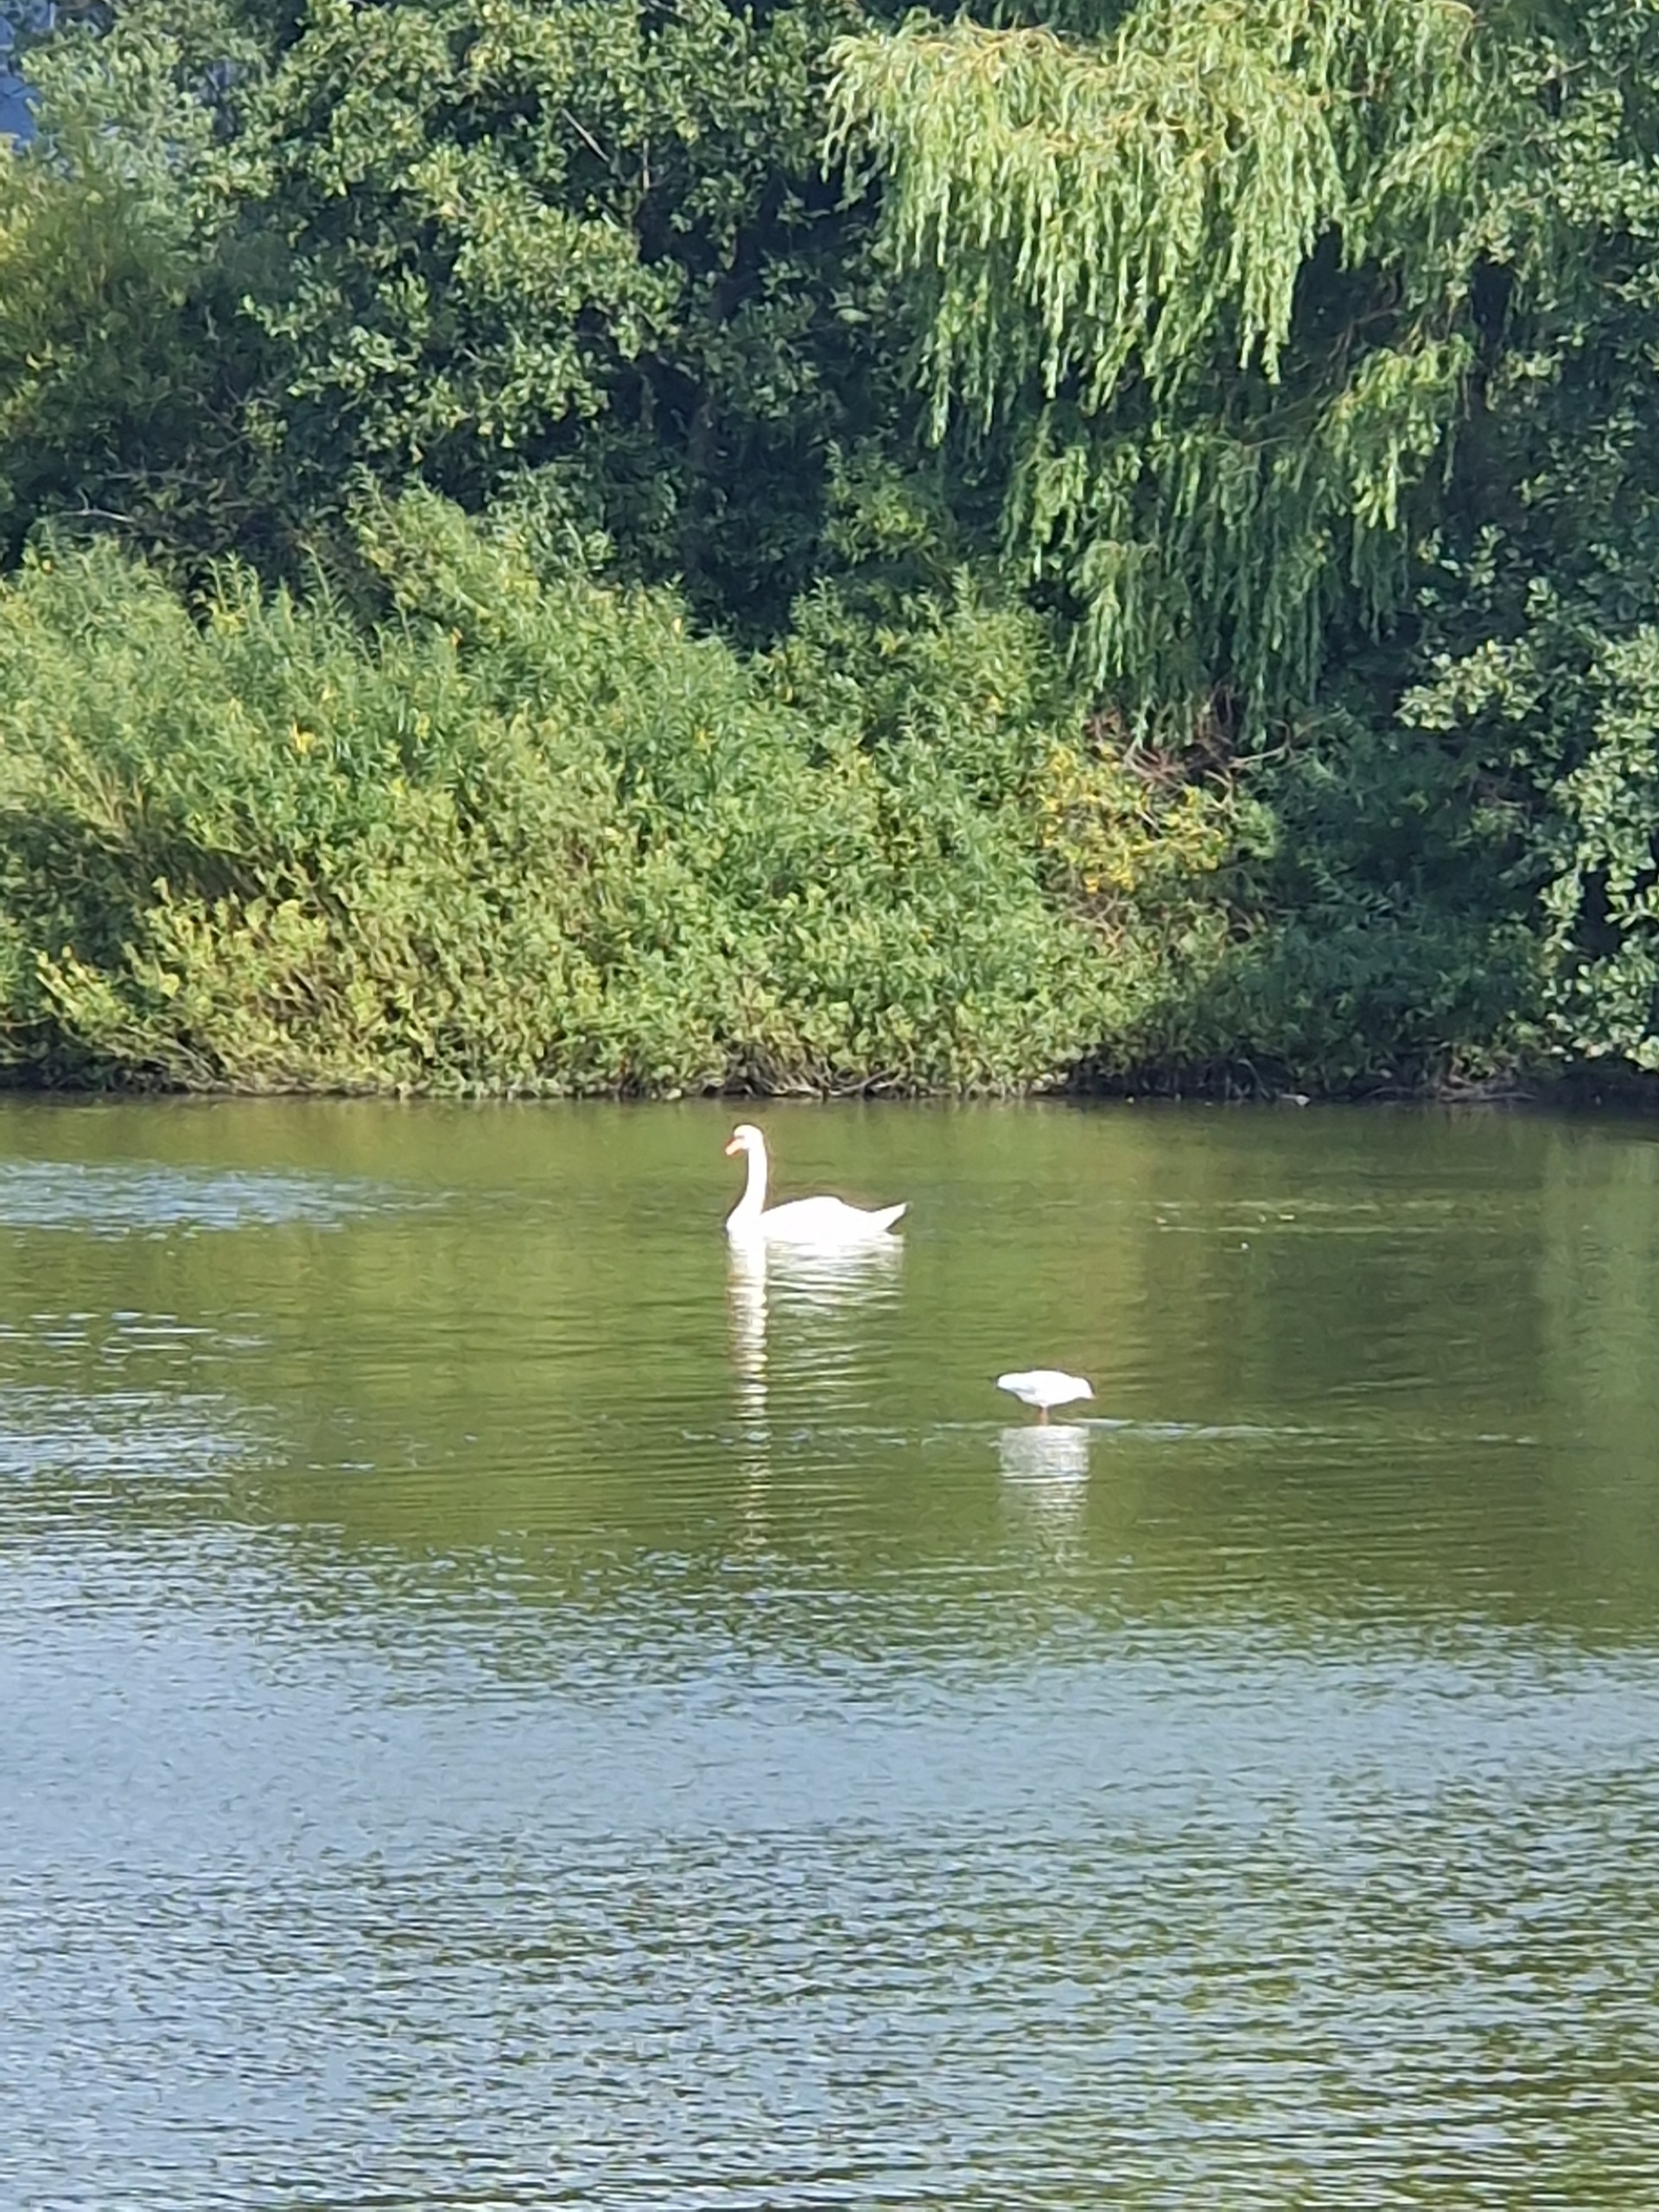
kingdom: Animalia
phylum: Chordata
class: Aves
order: Anseriformes
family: Anatidae
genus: Cygnus
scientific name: Cygnus olor
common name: Knopsvane
